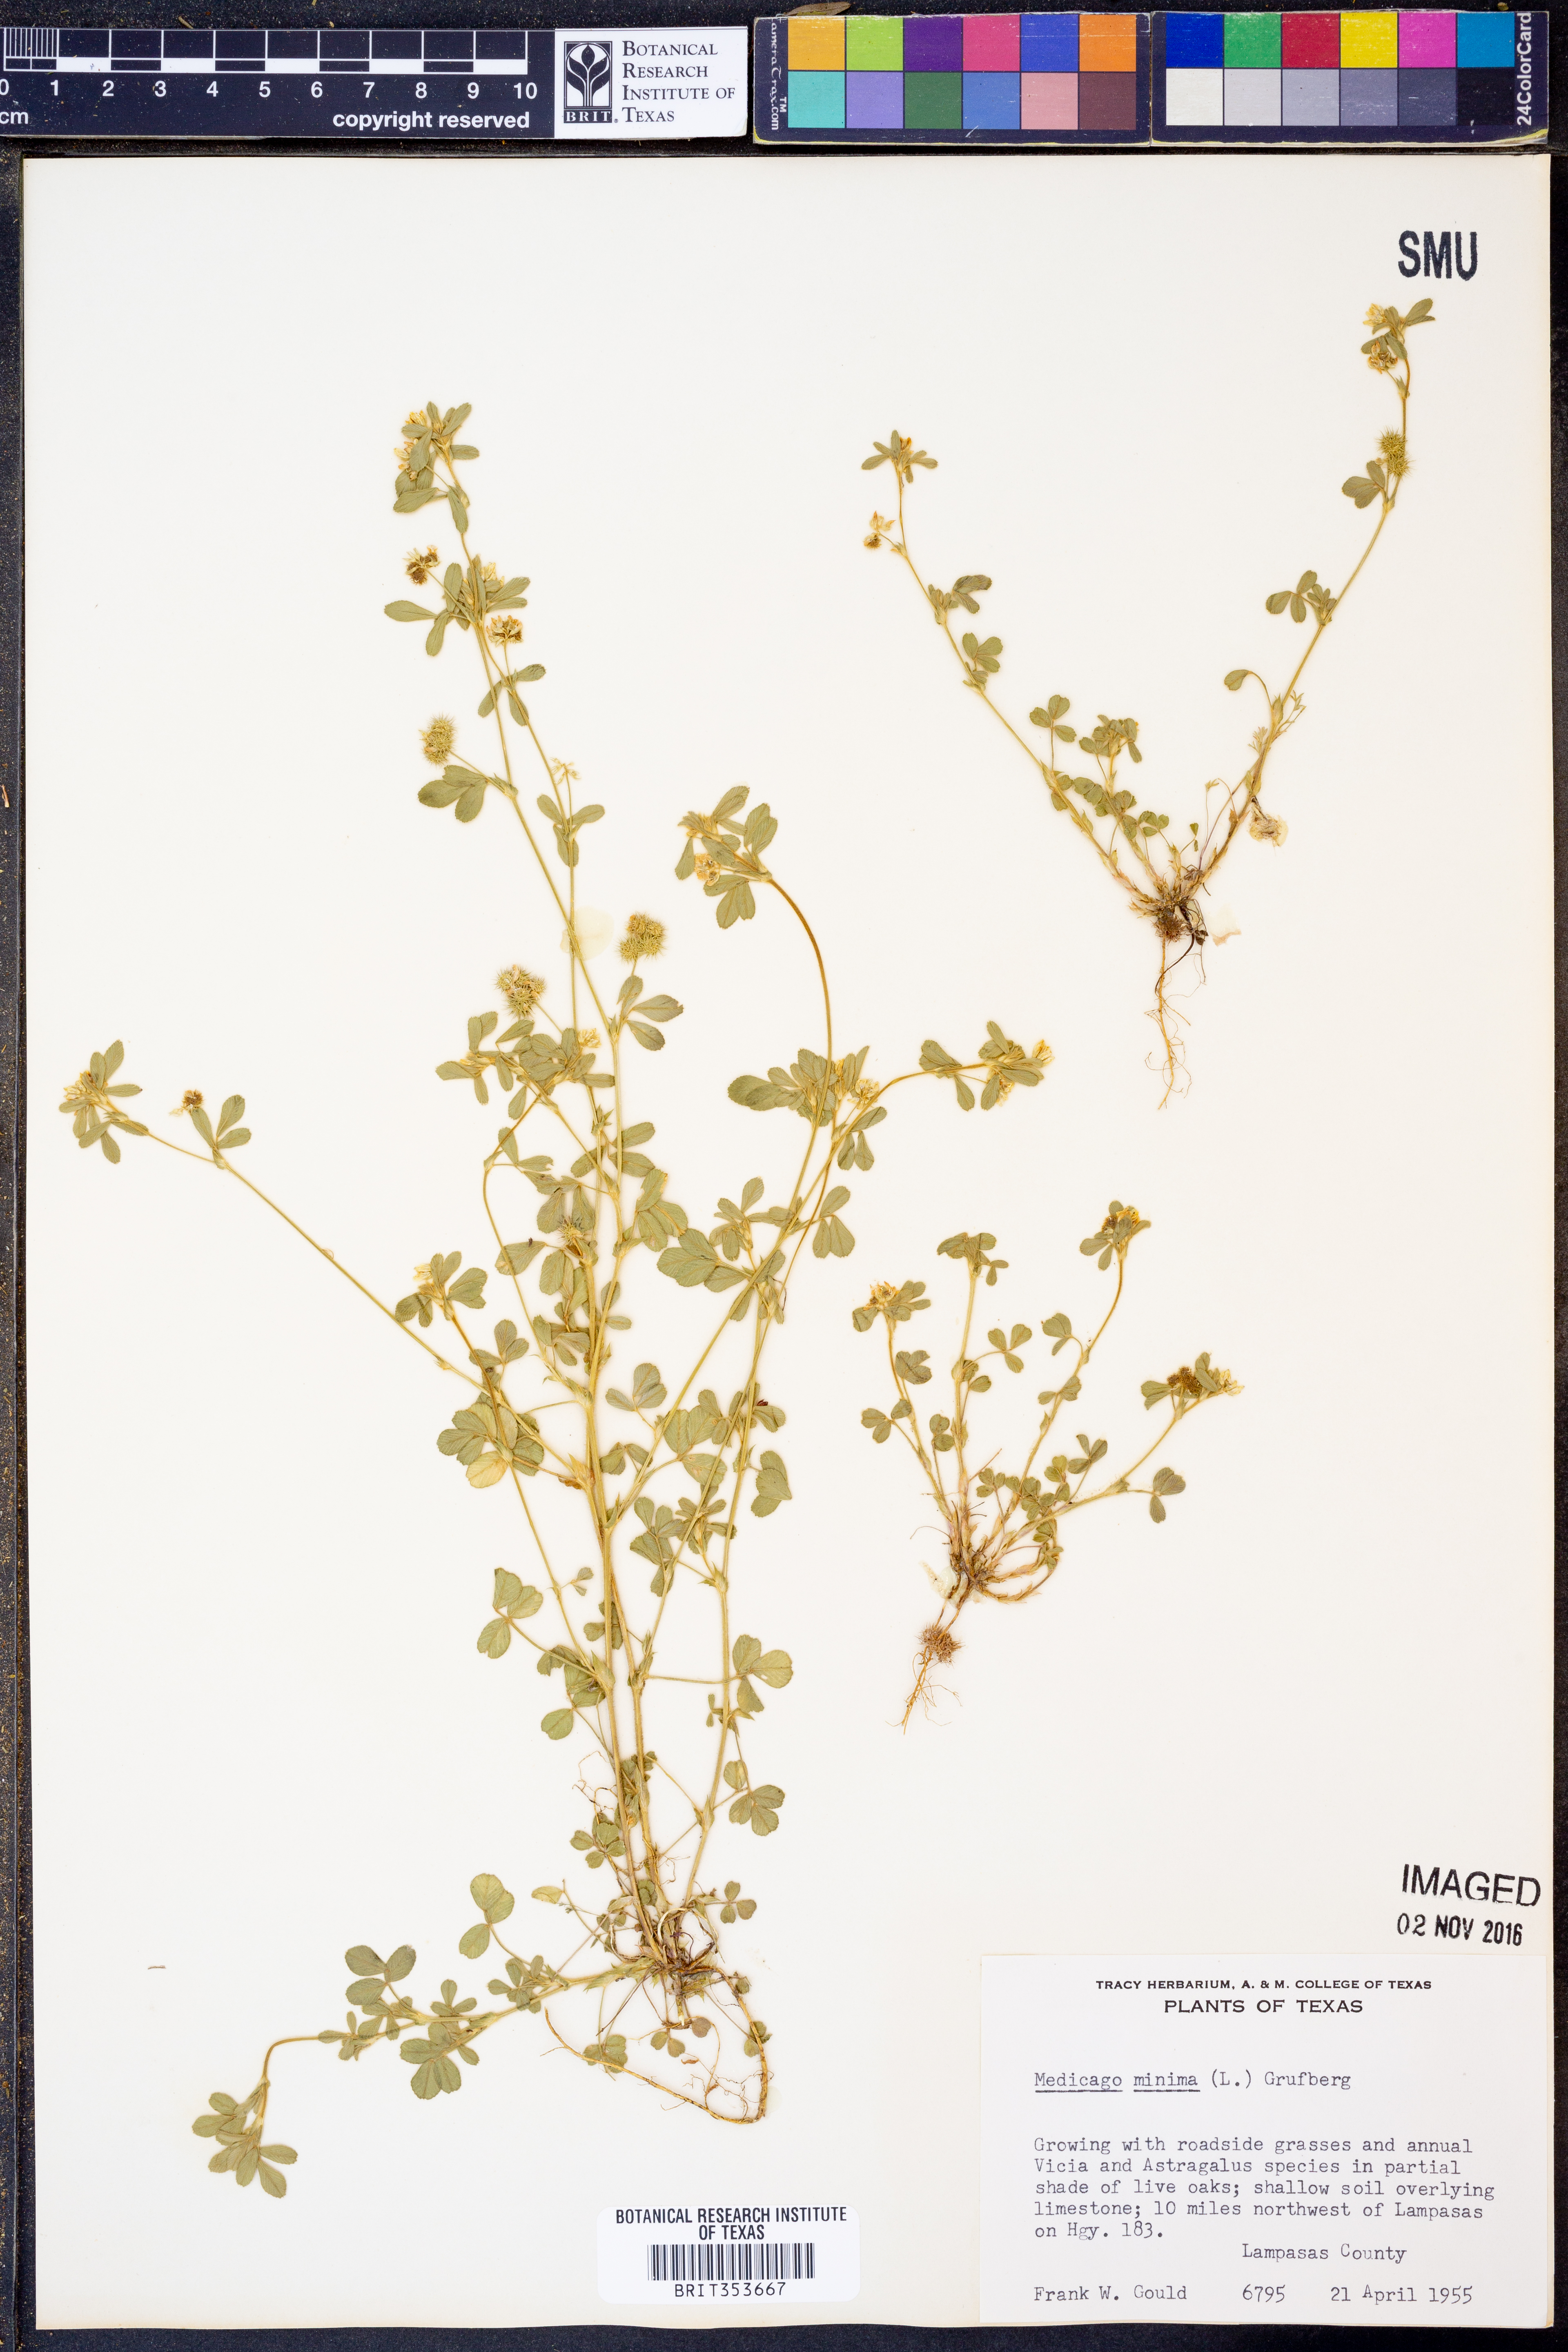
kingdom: Plantae
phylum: Tracheophyta
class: Magnoliopsida
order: Fabales
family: Fabaceae
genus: Medicago
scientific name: Medicago minima
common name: Little bur-clover
